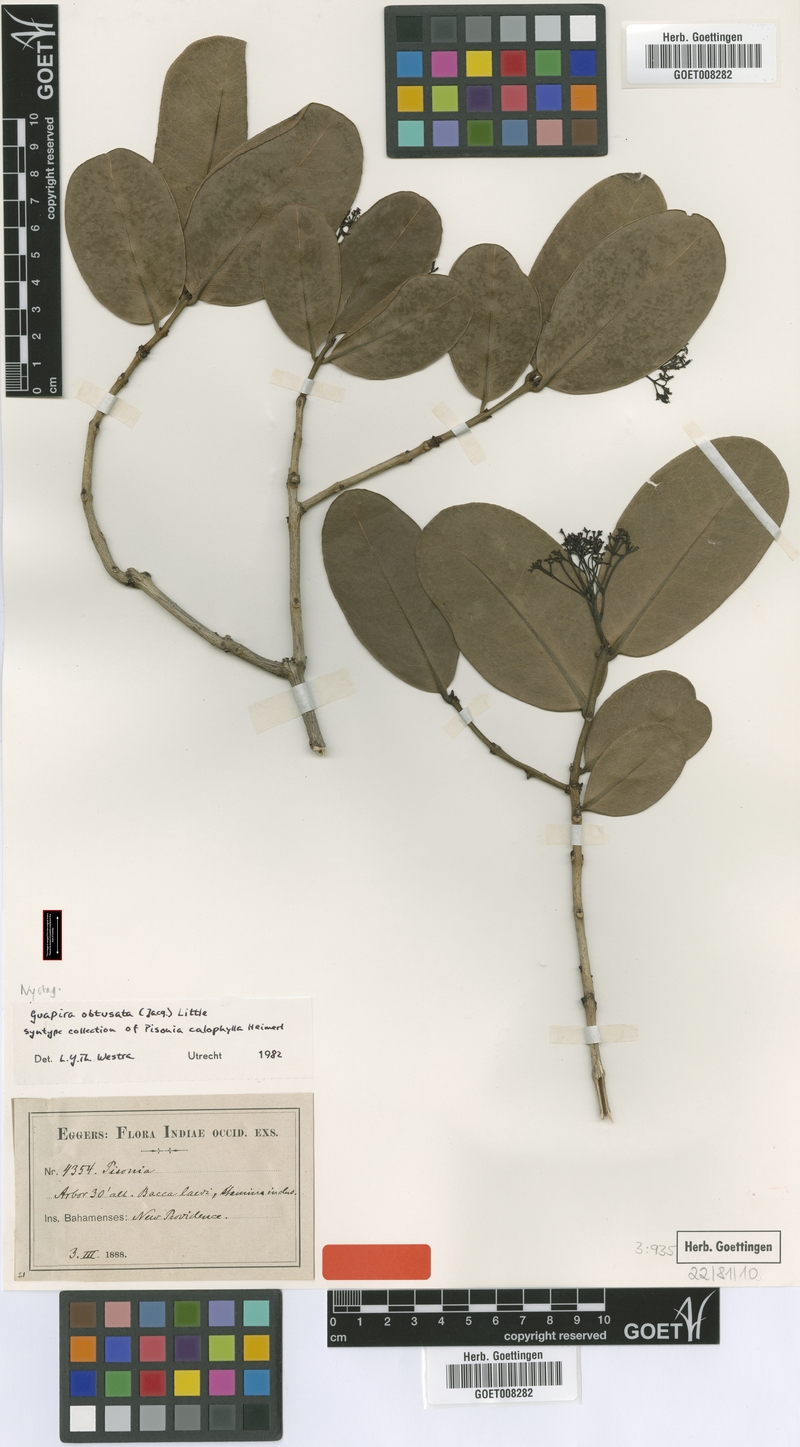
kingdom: Plantae
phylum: Tracheophyta
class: Magnoliopsida
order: Caryophyllales
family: Nyctaginaceae
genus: Guapira
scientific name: Guapira obtusata
